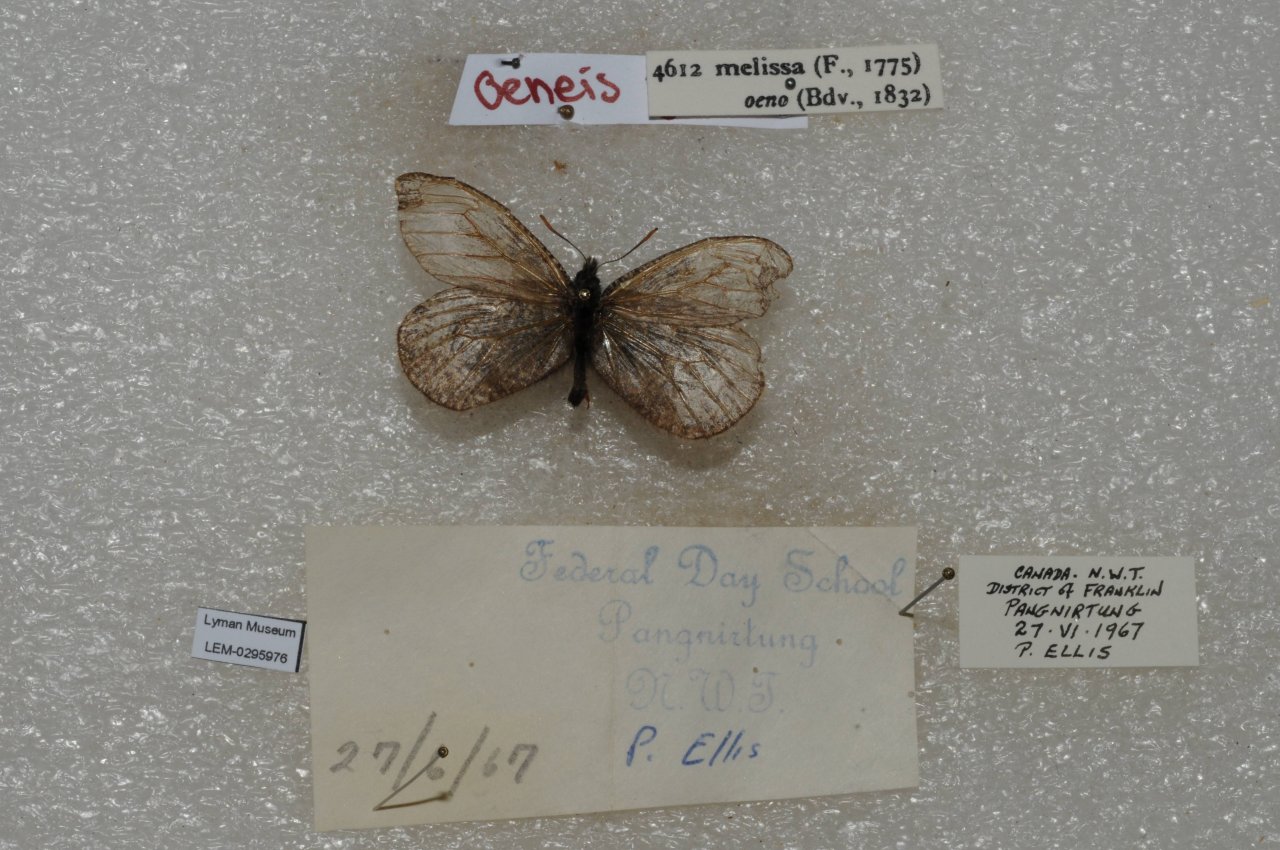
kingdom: Animalia
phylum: Arthropoda
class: Insecta
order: Lepidoptera
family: Nymphalidae
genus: Oeneis
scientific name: Oeneis melissa
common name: Melissa Arctic
